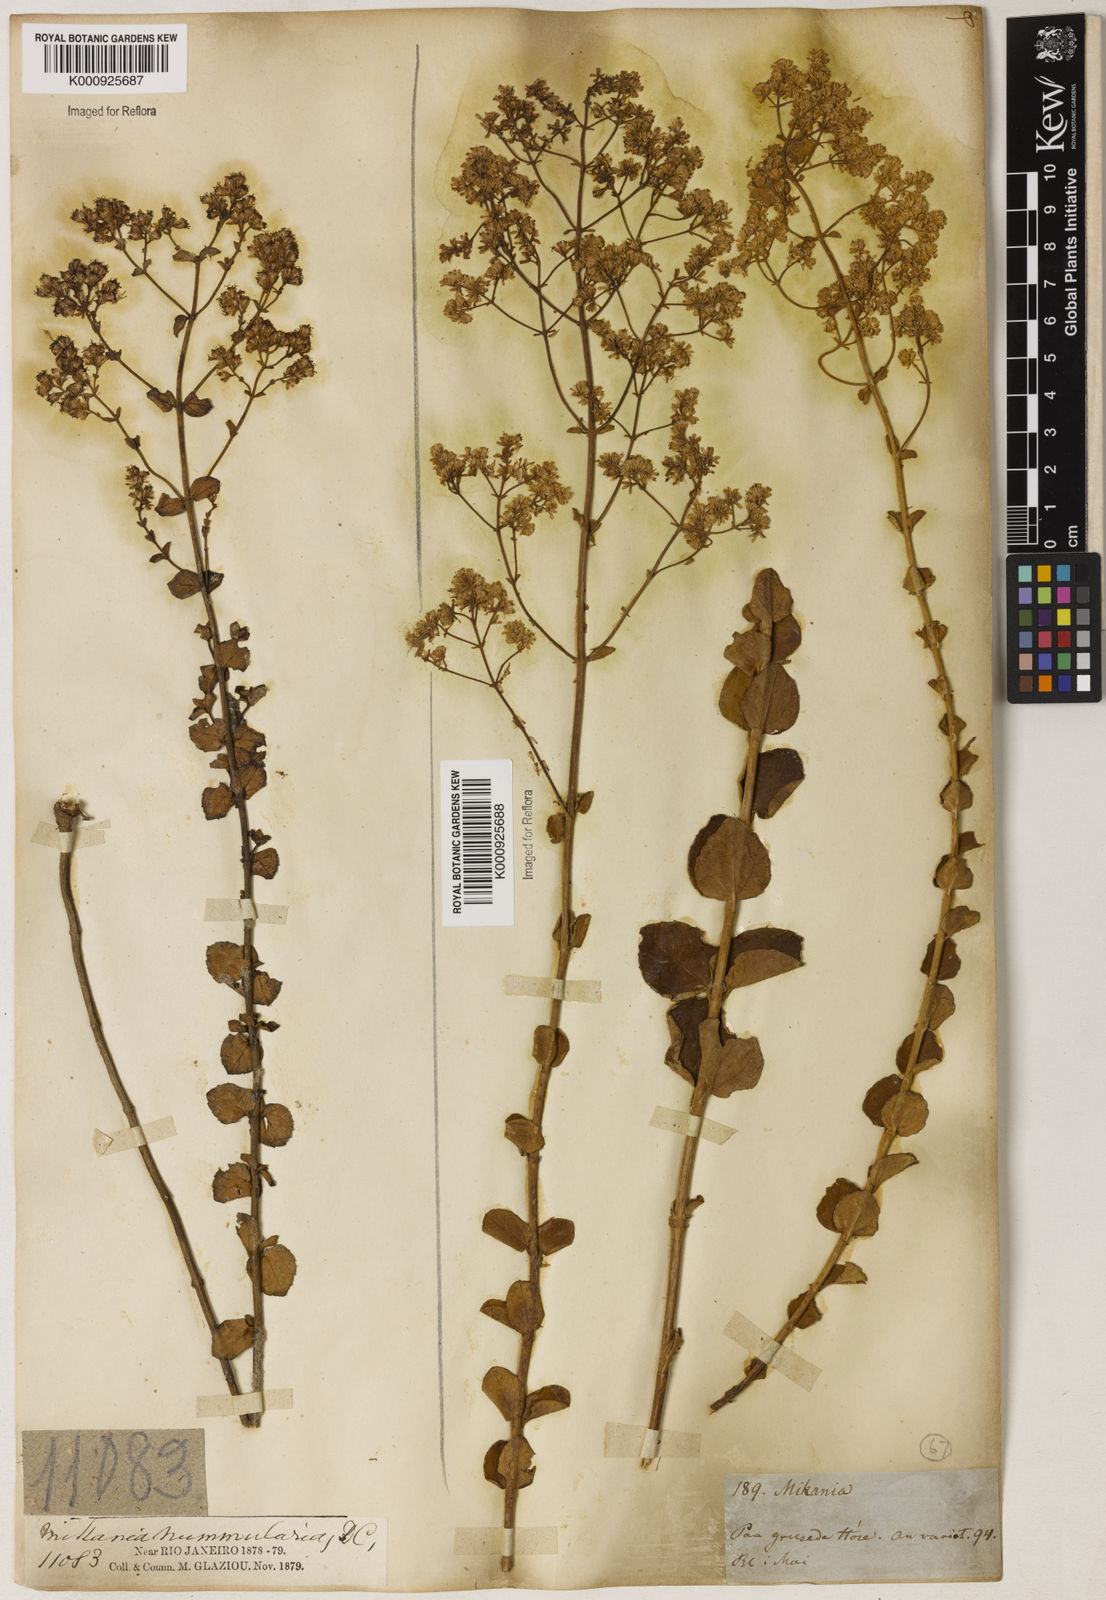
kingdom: Plantae
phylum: Tracheophyta
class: Magnoliopsida
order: Asterales
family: Asteraceae
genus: Mikania
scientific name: Mikania nummularia
